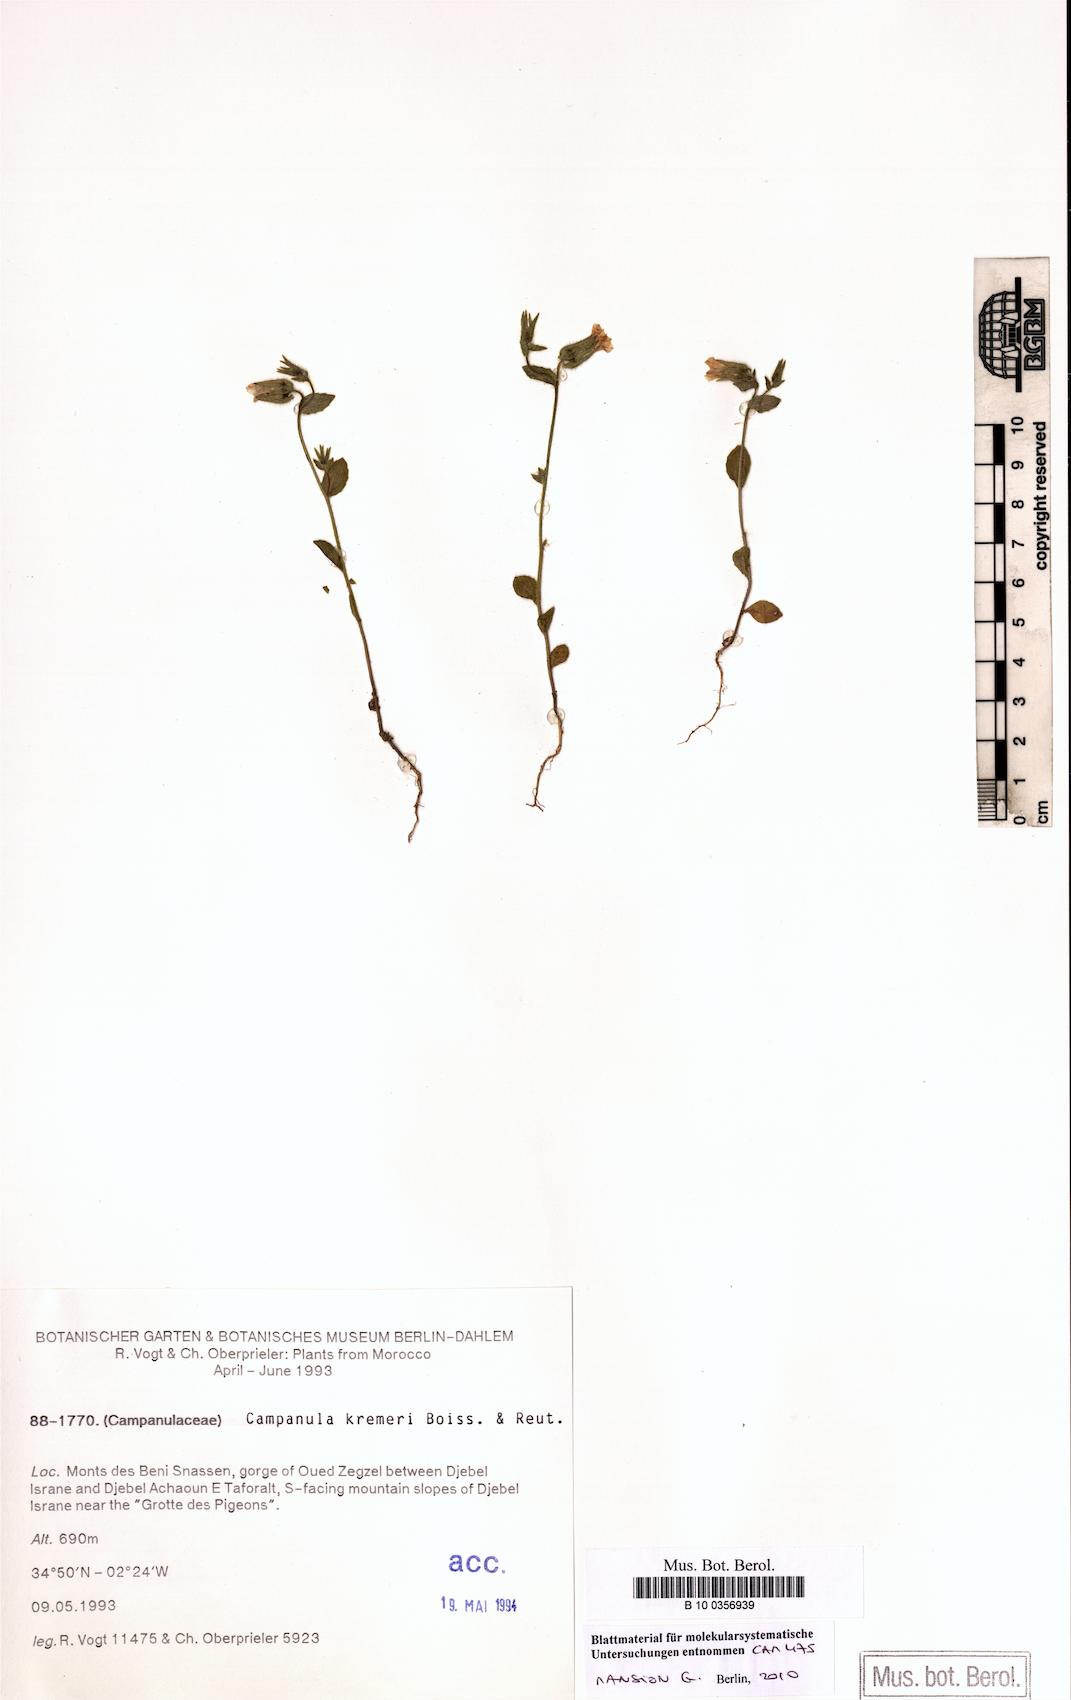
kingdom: Plantae
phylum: Tracheophyta
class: Magnoliopsida
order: Asterales
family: Campanulaceae
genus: Campanula
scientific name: Campanula afra
